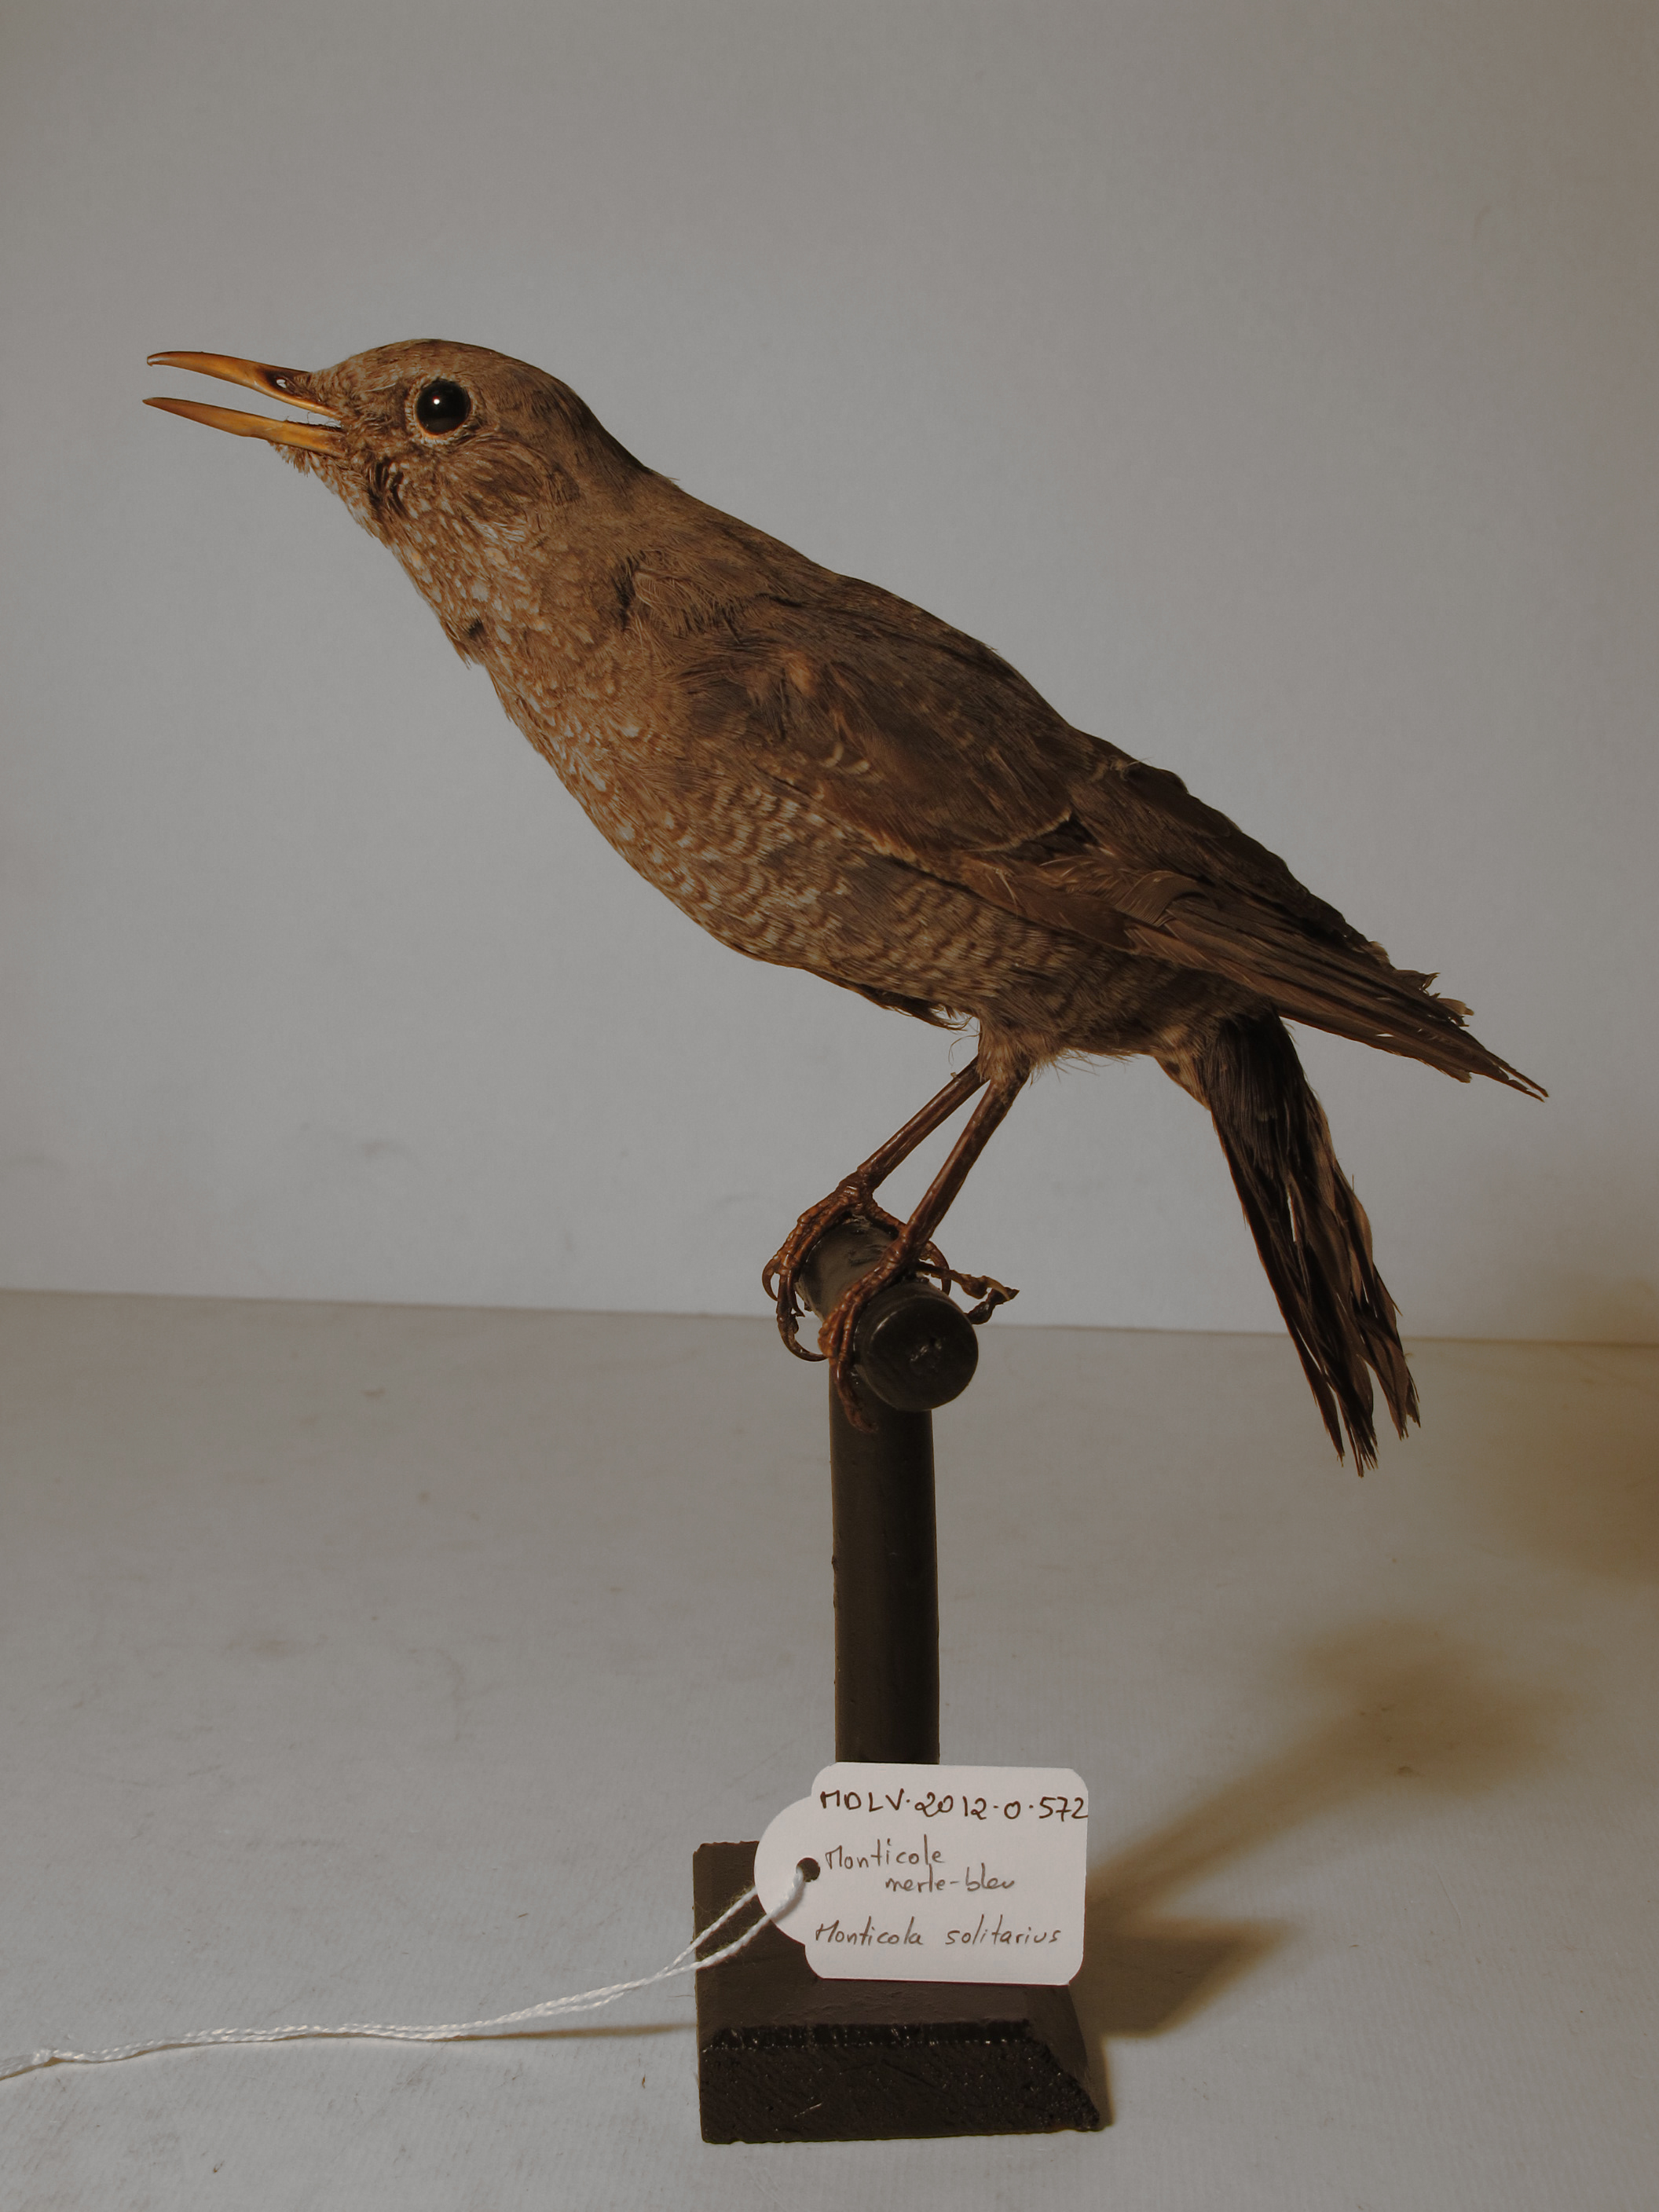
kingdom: Animalia
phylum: Chordata
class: Aves
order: Passeriformes
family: Muscicapidae
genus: Monticola
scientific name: Monticola solitarius
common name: Blue Rock-thrush
